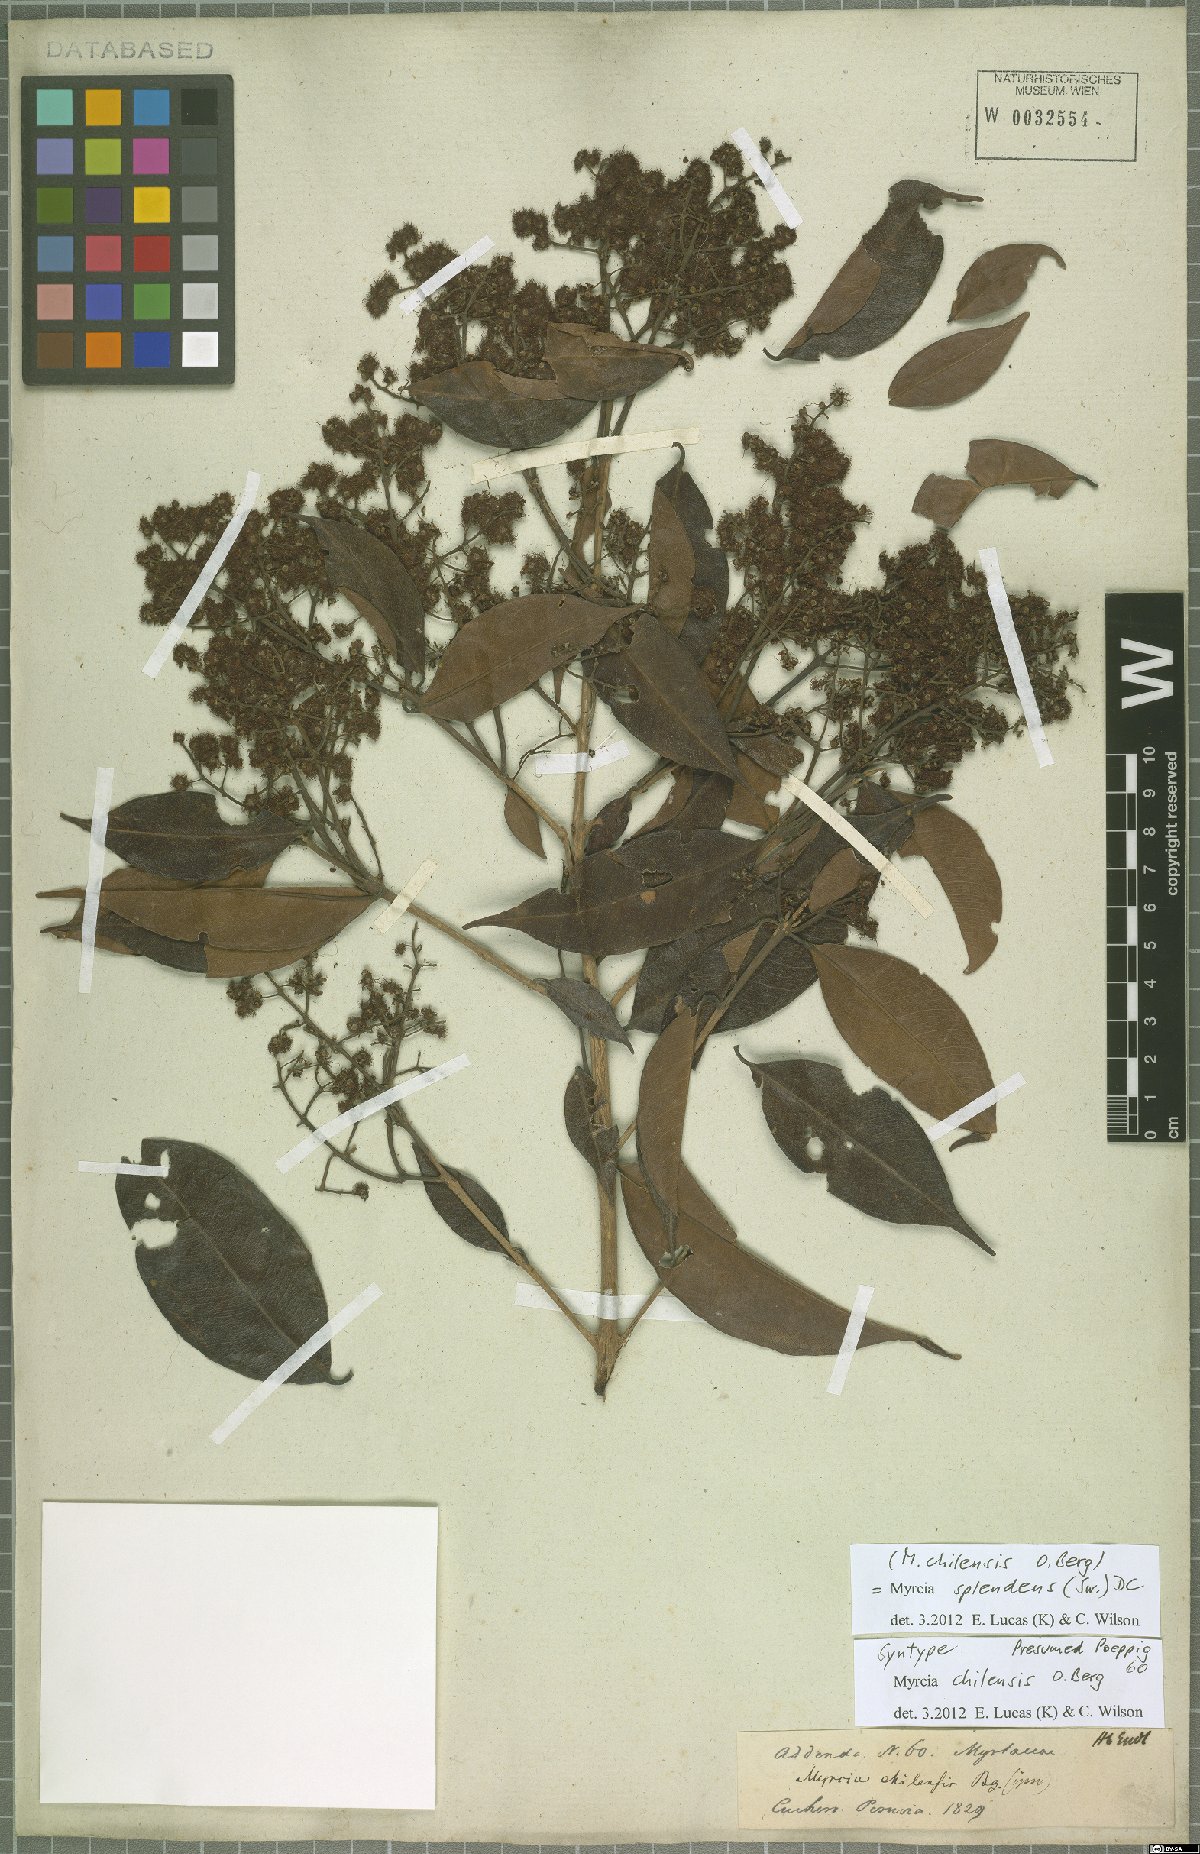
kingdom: Plantae
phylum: Tracheophyta
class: Magnoliopsida
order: Myrtales
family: Myrtaceae
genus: Myrcia
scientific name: Myrcia splendens
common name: Surinam cherry
